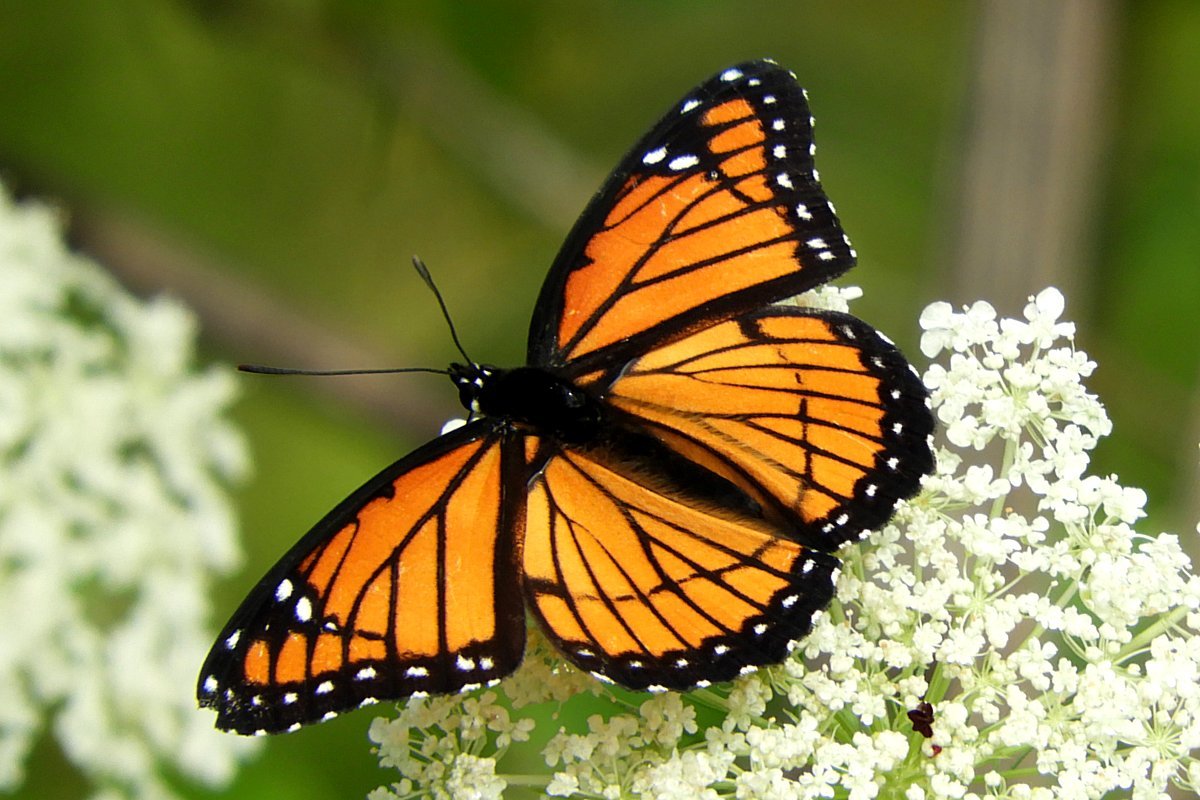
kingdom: Animalia
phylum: Arthropoda
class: Insecta
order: Lepidoptera
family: Nymphalidae
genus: Limenitis
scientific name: Limenitis archippus
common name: Viceroy
